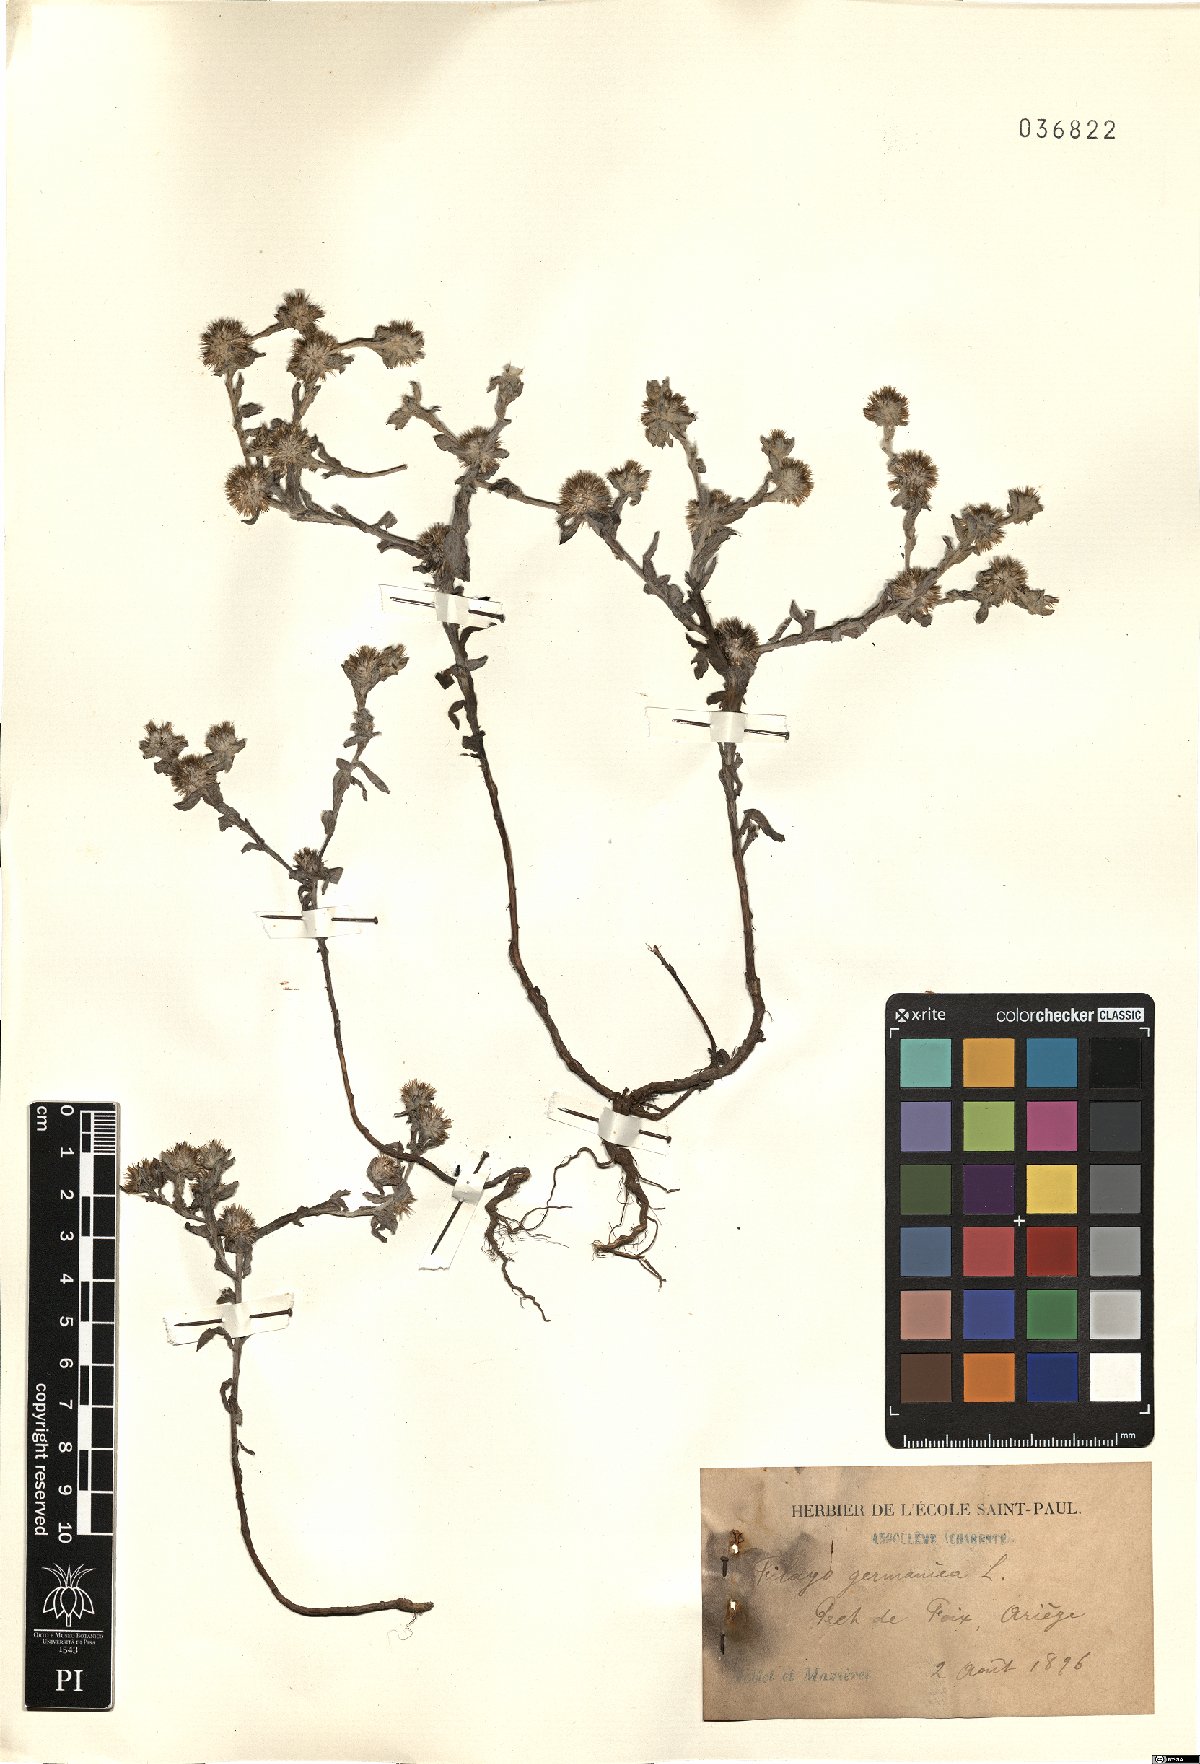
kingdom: Plantae
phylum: Tracheophyta
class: Magnoliopsida
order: Asterales
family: Asteraceae
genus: Filago
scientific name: Filago germanica
